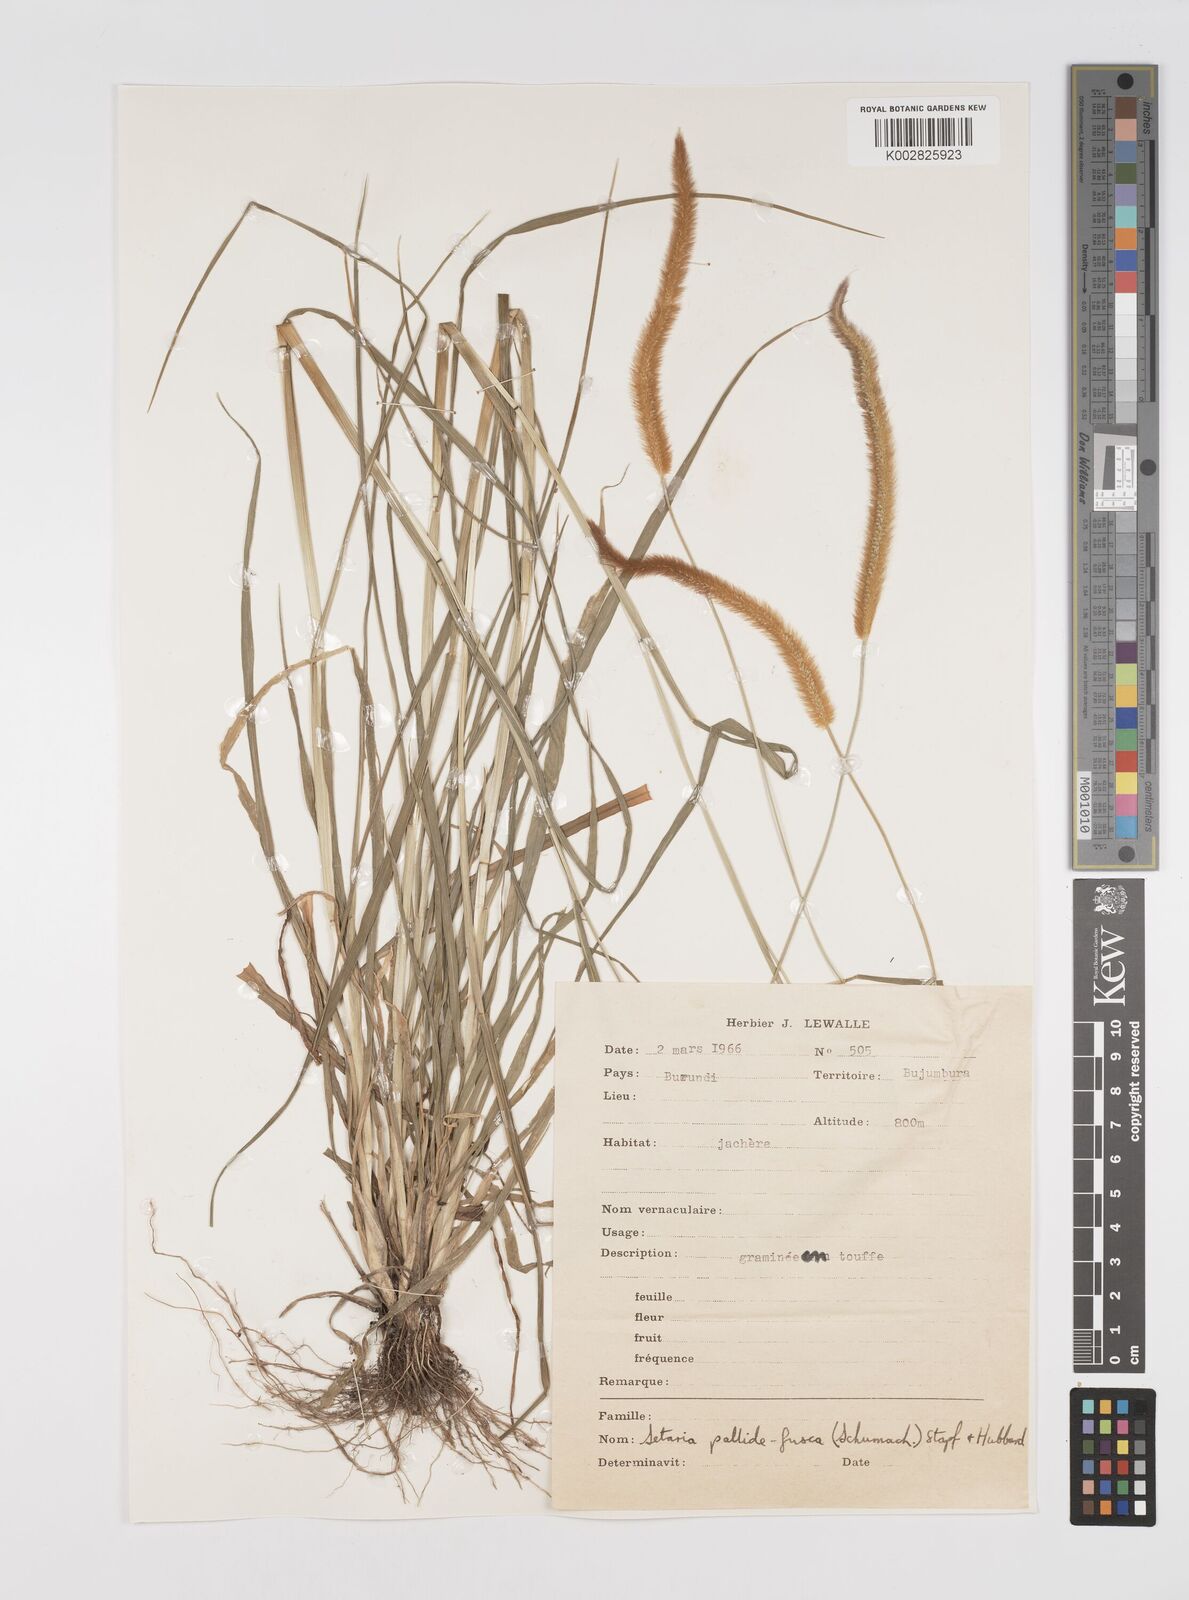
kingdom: Plantae
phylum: Tracheophyta
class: Liliopsida
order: Poales
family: Poaceae
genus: Setaria
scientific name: Setaria pumila
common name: Yellow bristle-grass
